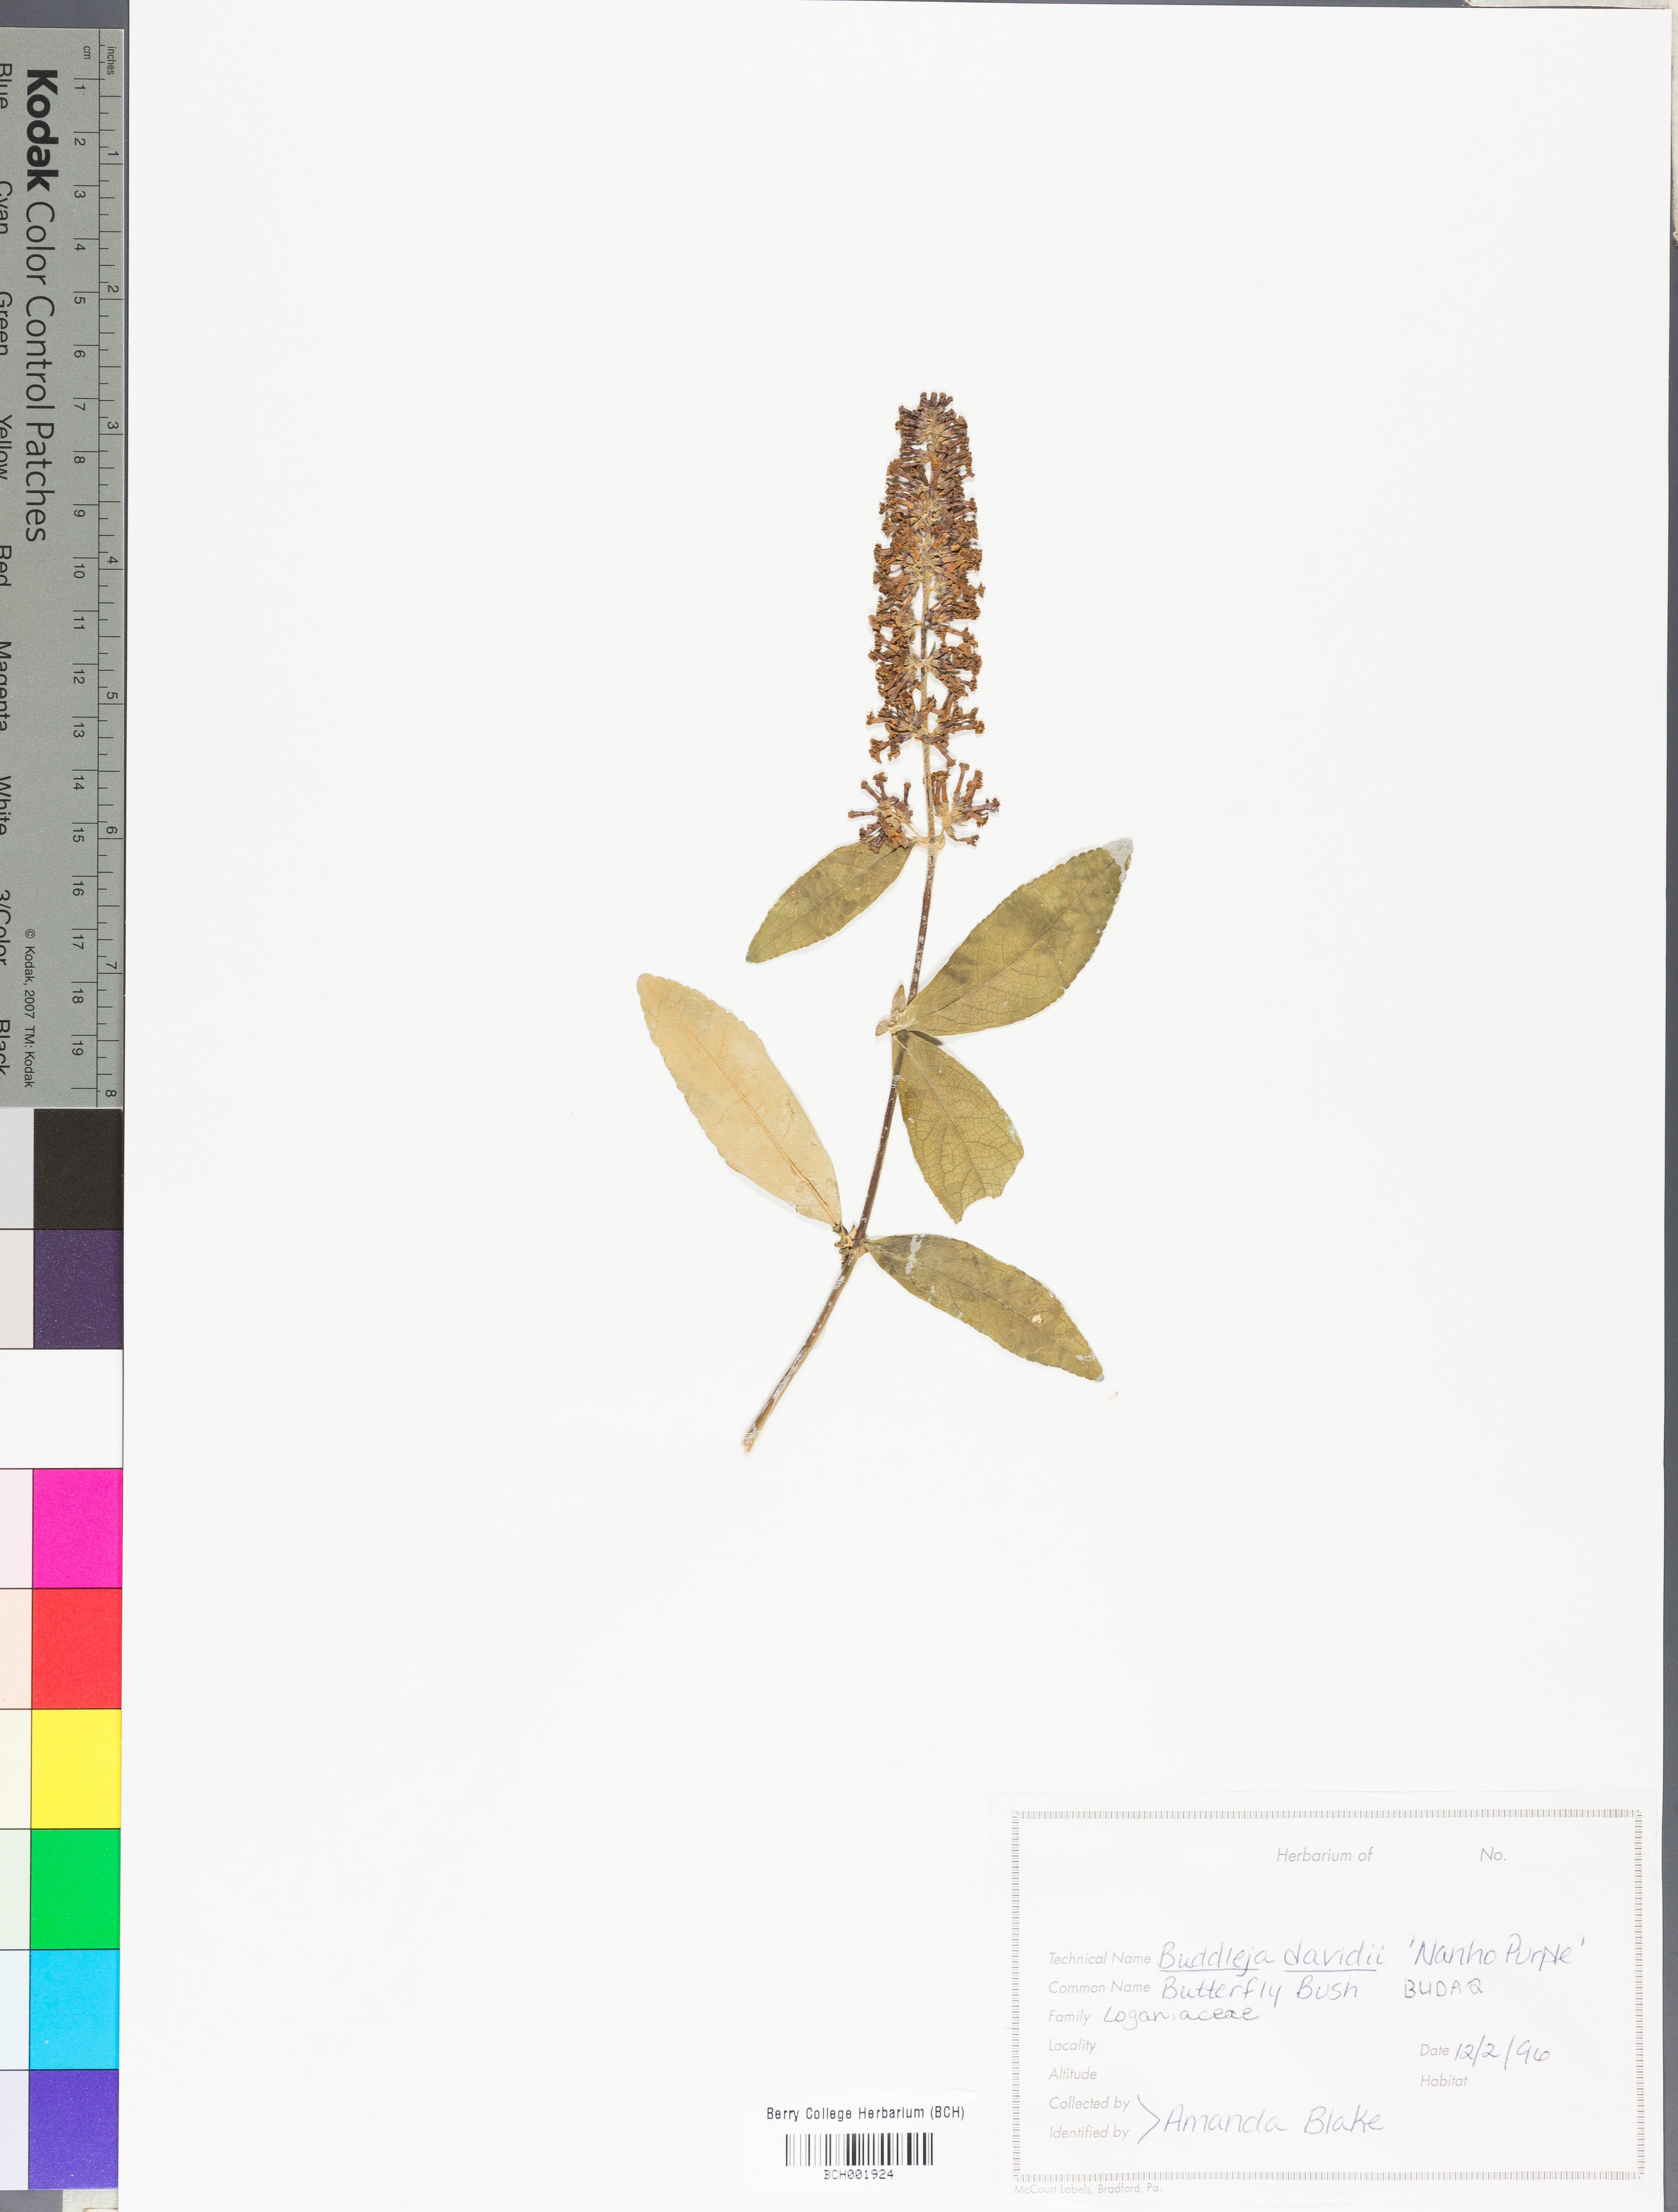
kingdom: Plantae
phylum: Tracheophyta
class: Magnoliopsida
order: Lamiales
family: Scrophulariaceae
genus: Buddleja
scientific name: Buddleja davidii
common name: Butterfly-bush
